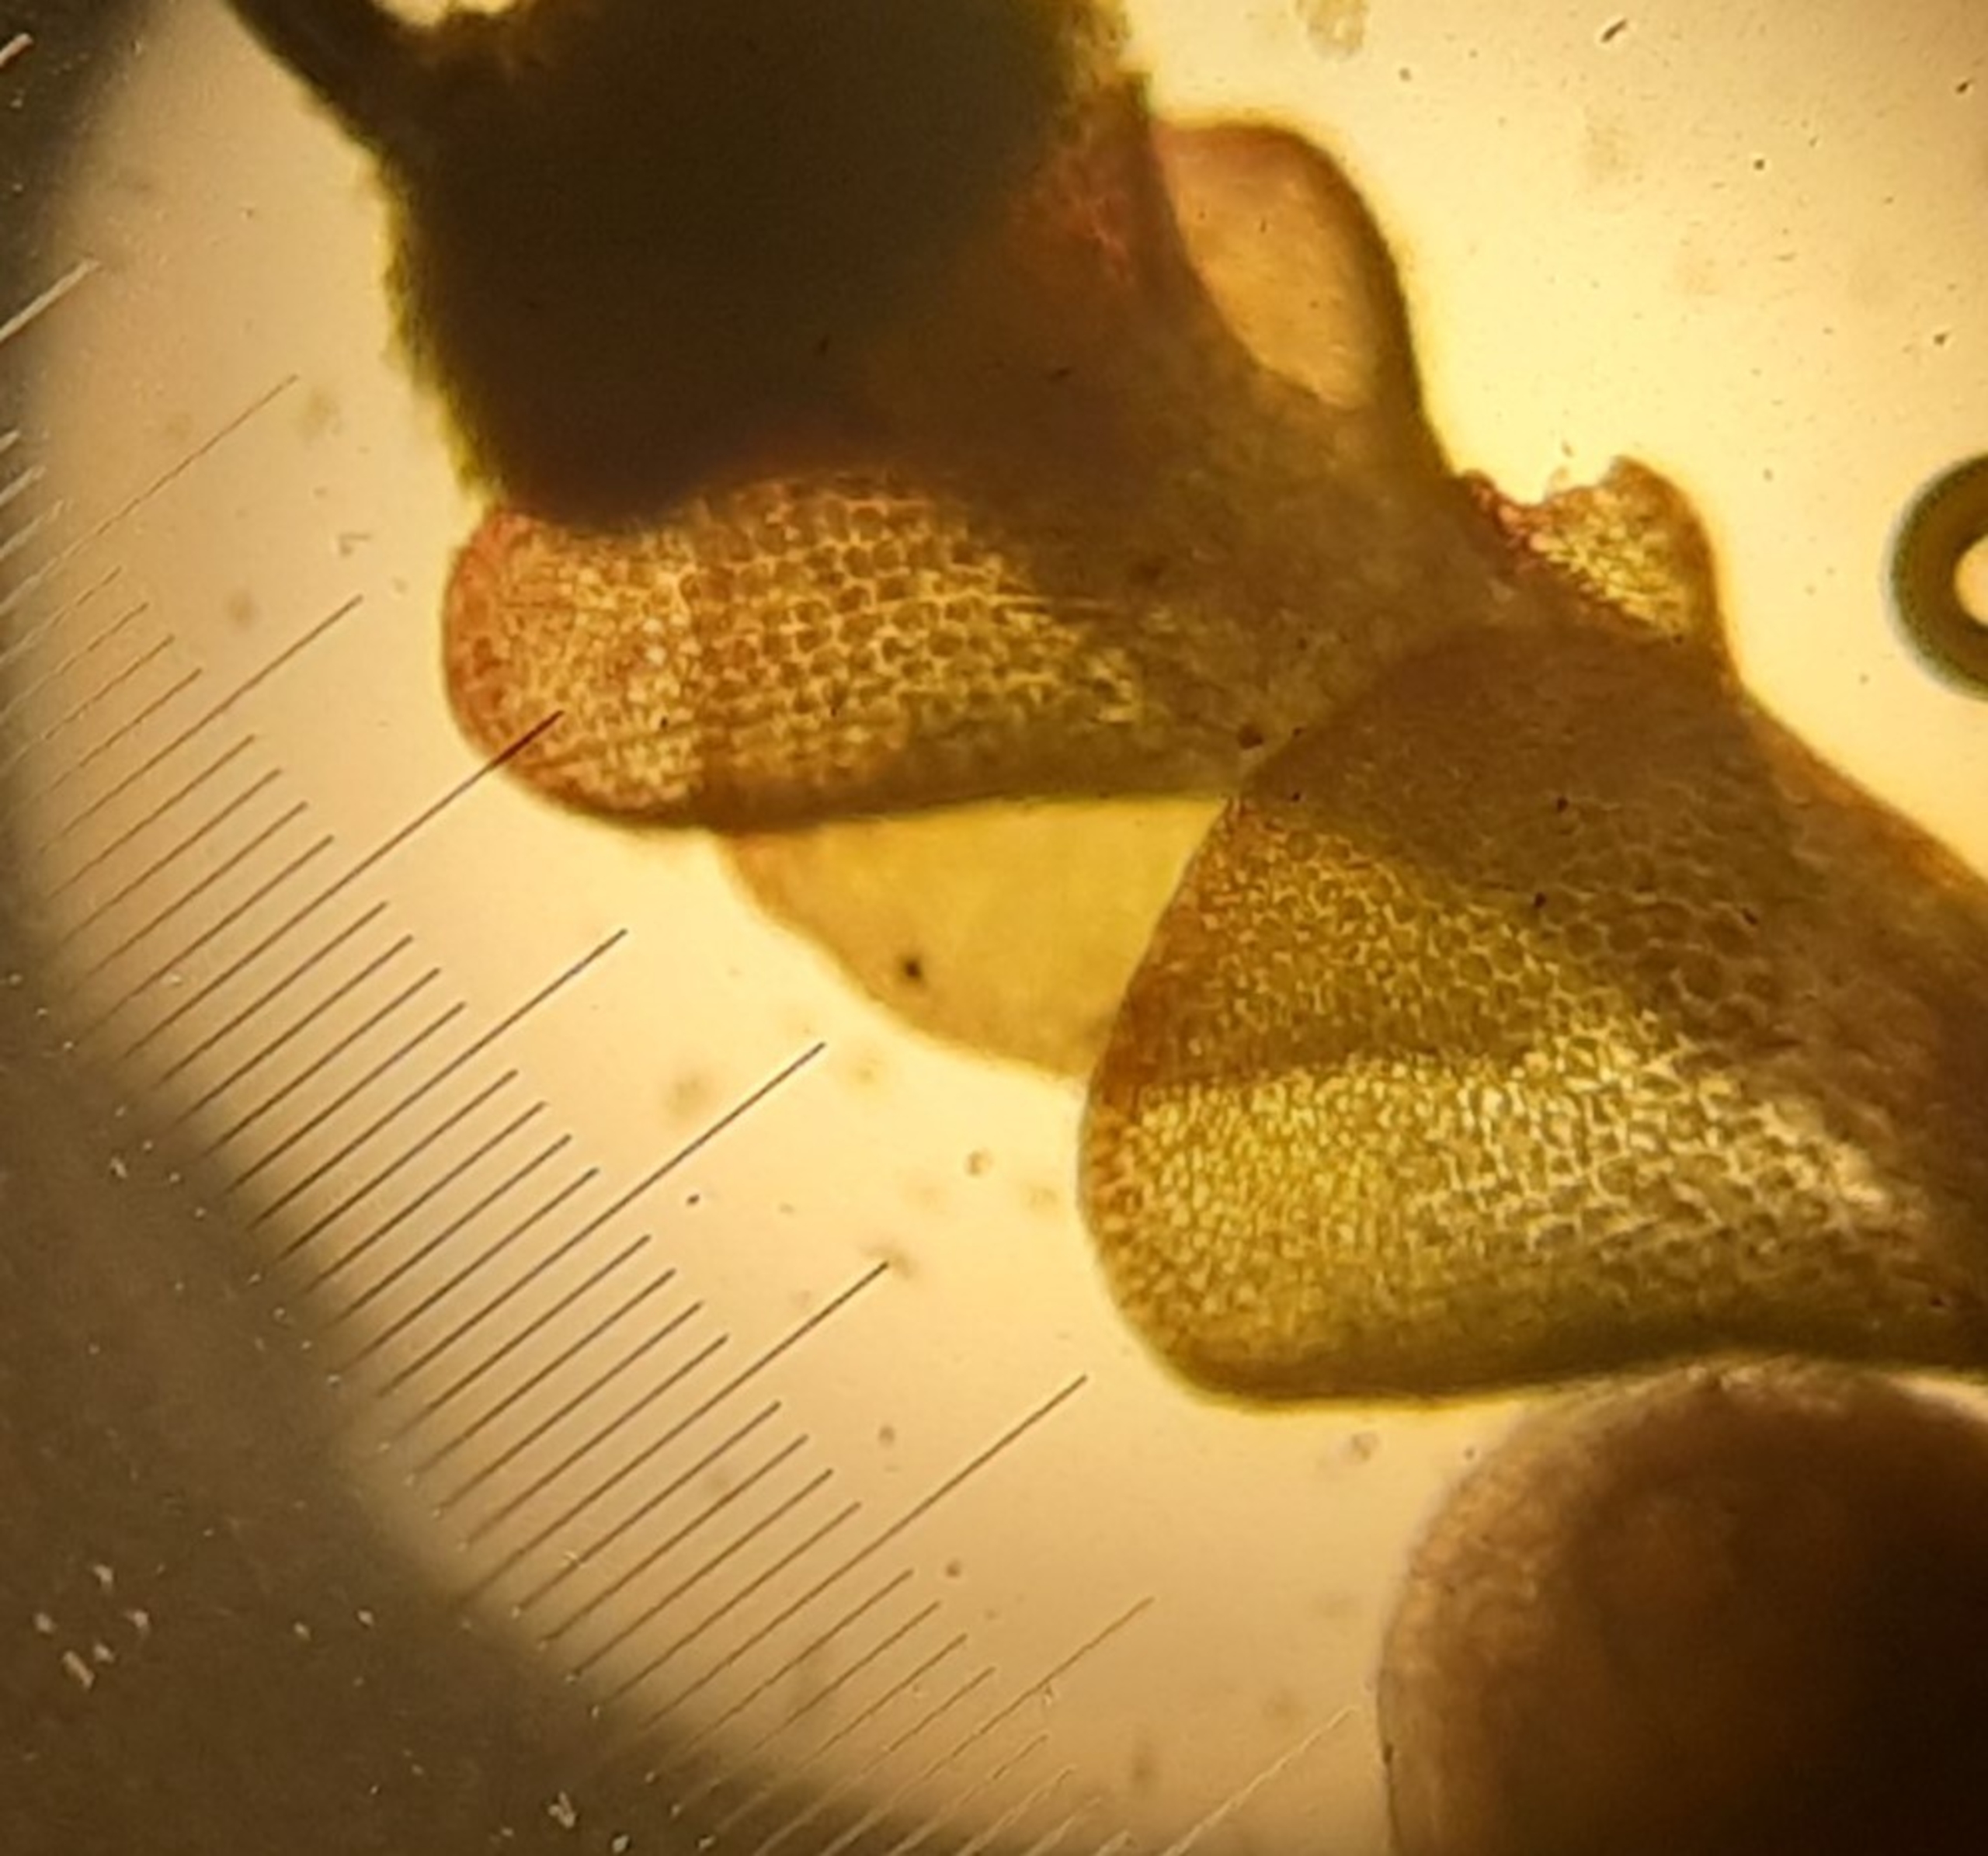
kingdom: Plantae
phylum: Marchantiophyta
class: Jungermanniopsida
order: Jungermanniales
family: Cephaloziaceae
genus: Odontoschisma
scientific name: Odontoschisma denudatum
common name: Tørve-flagelmos
